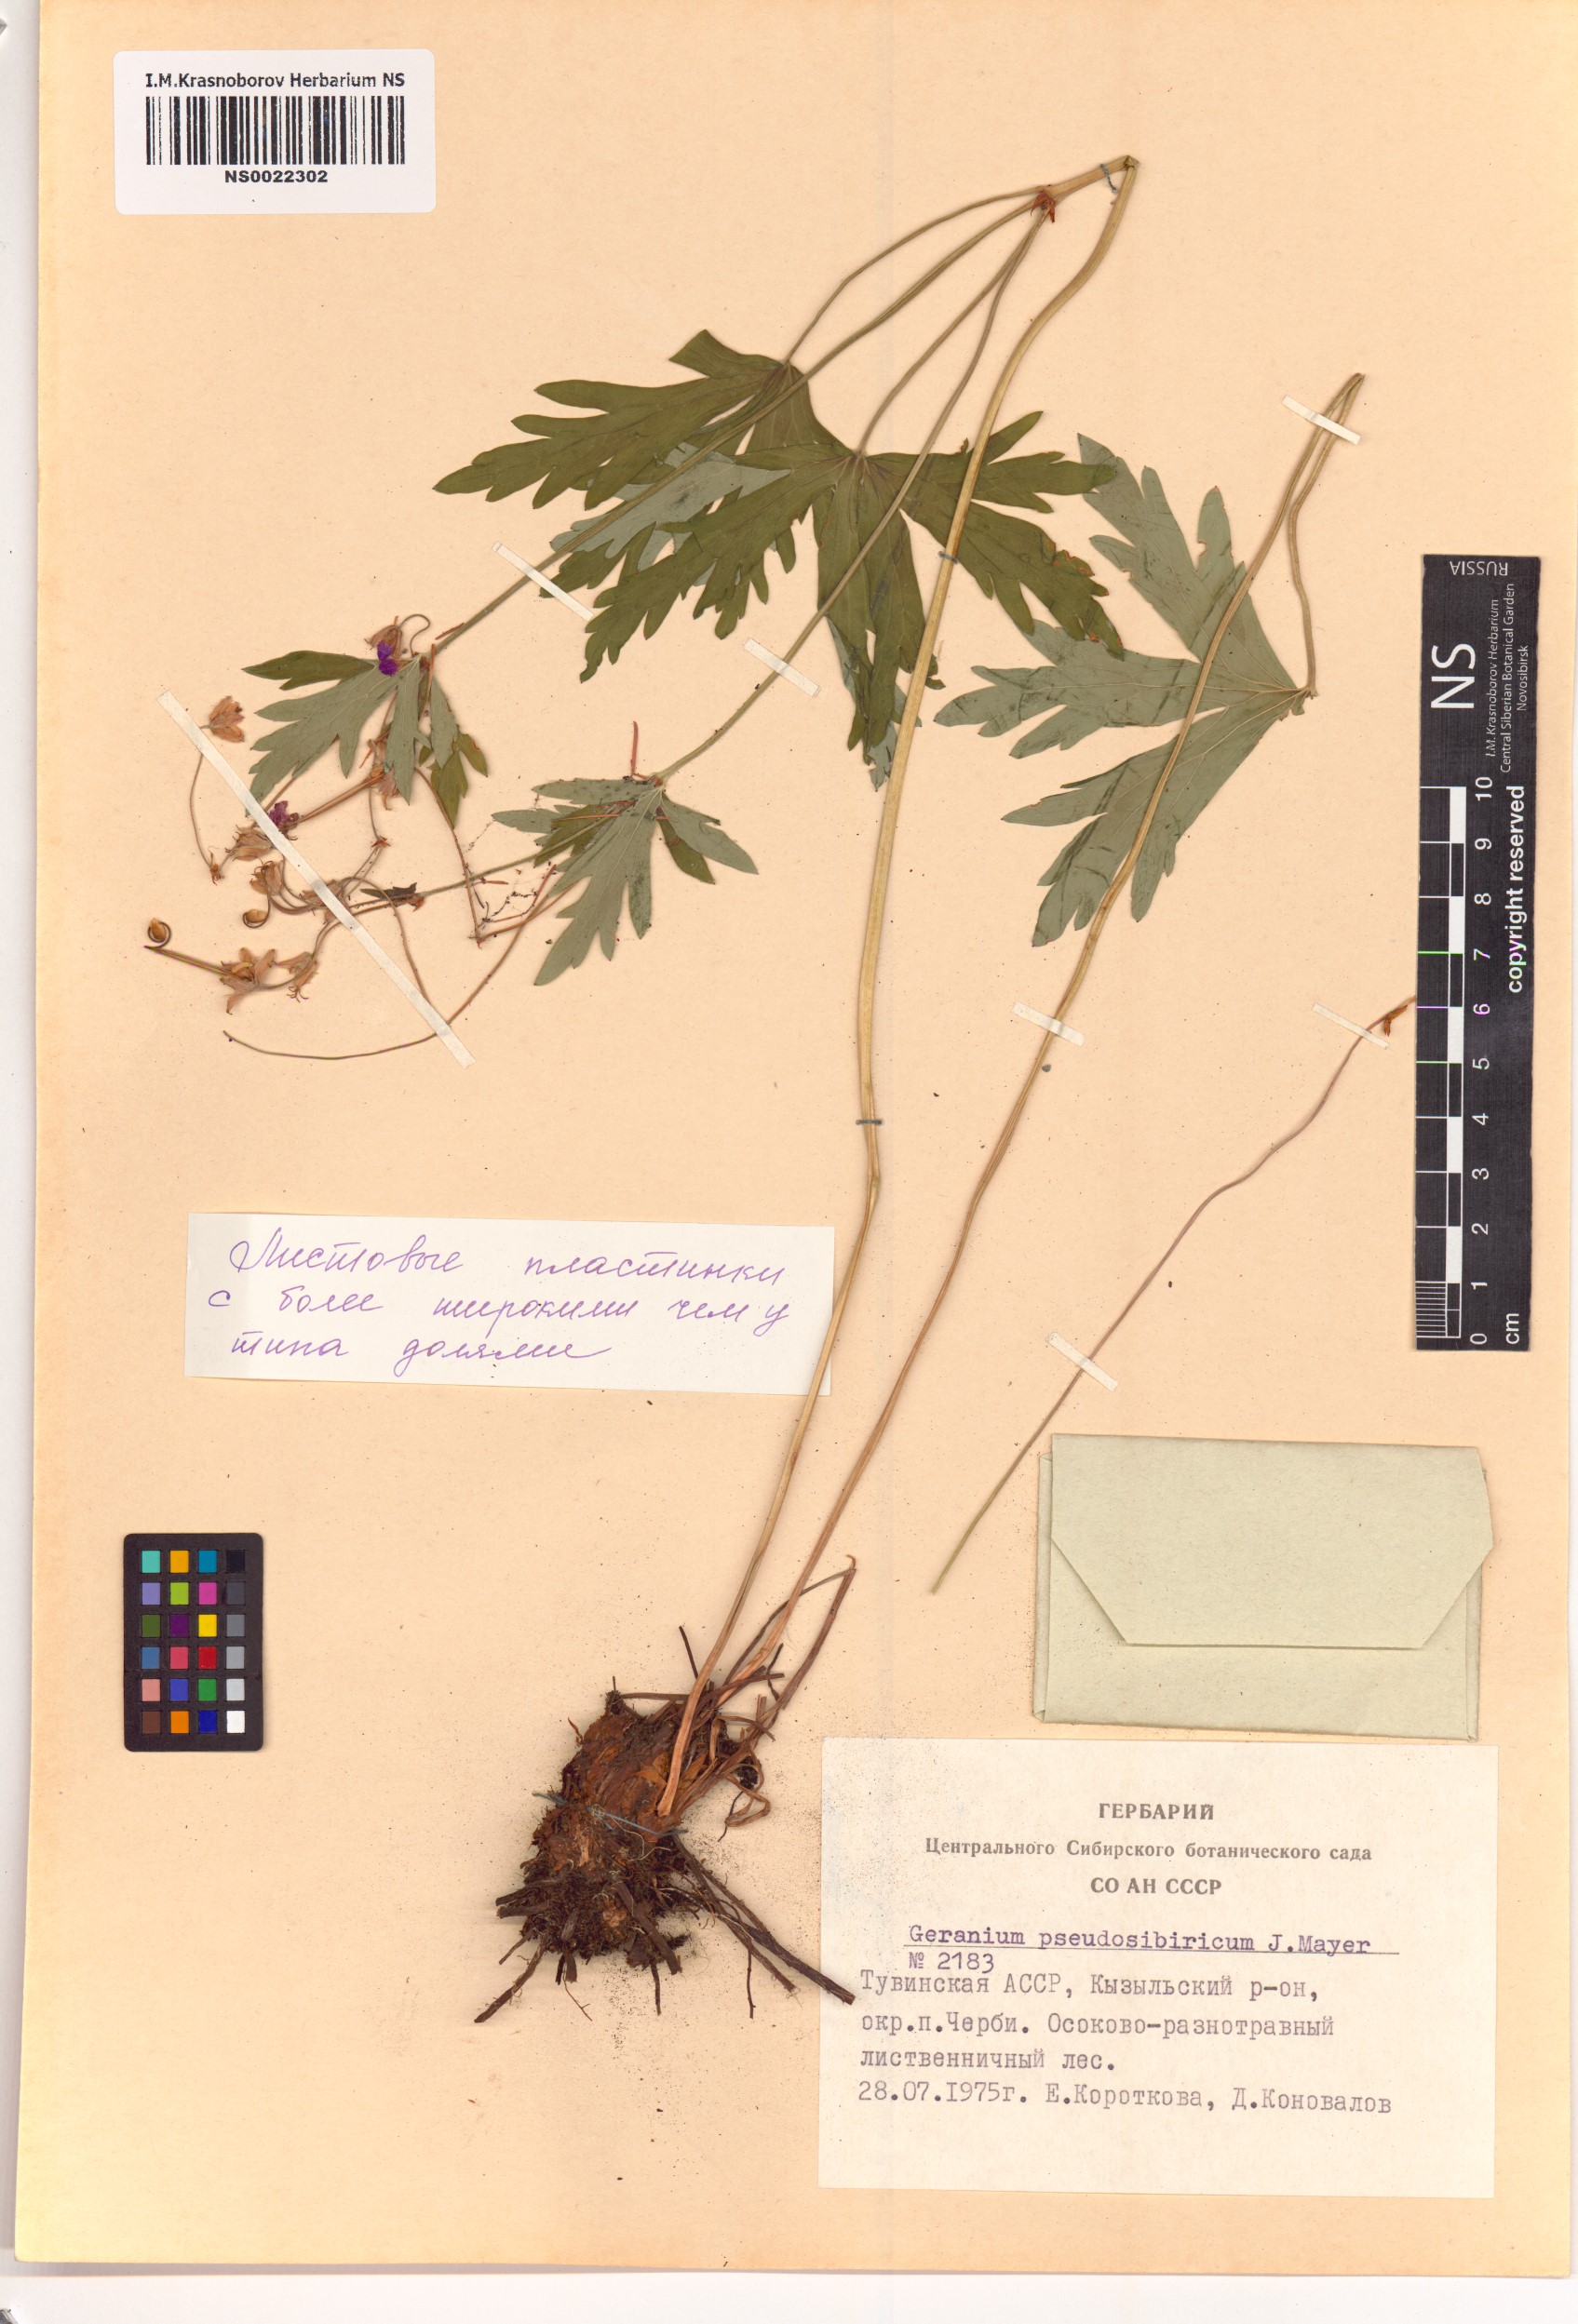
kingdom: Plantae
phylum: Tracheophyta
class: Magnoliopsida
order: Geraniales
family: Geraniaceae
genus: Geranium
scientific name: Geranium pseudosibiricum
